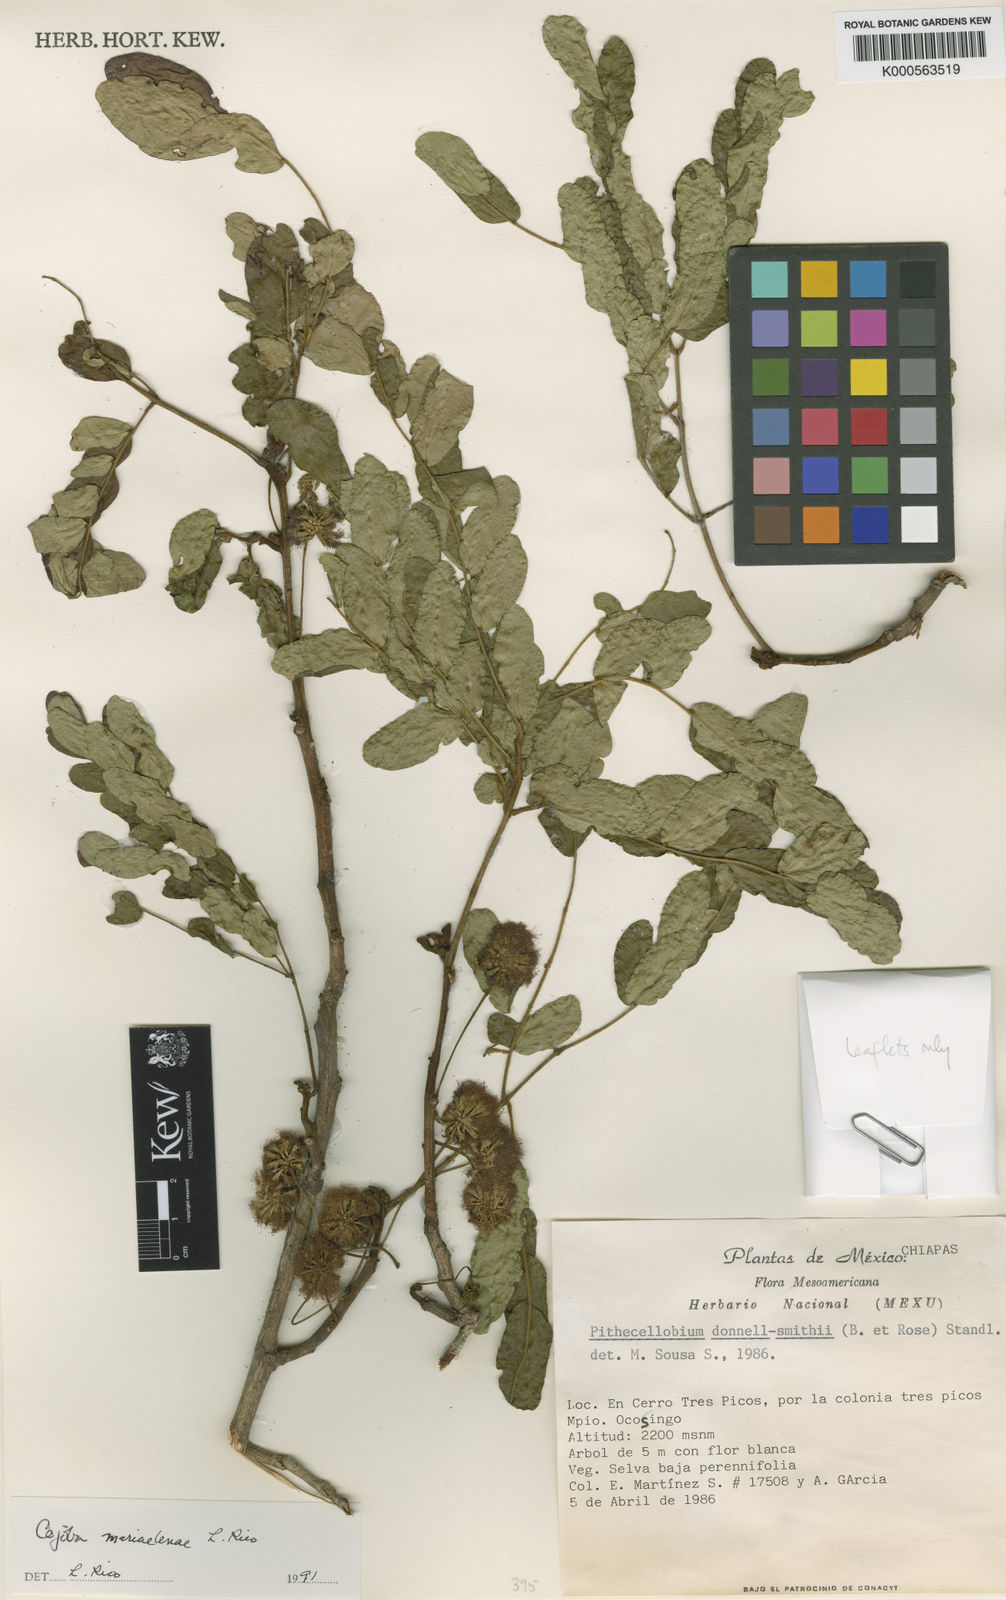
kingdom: Plantae
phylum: Tracheophyta
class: Magnoliopsida
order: Fabales
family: Fabaceae
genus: Cojoba
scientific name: Cojoba escuintlensis
